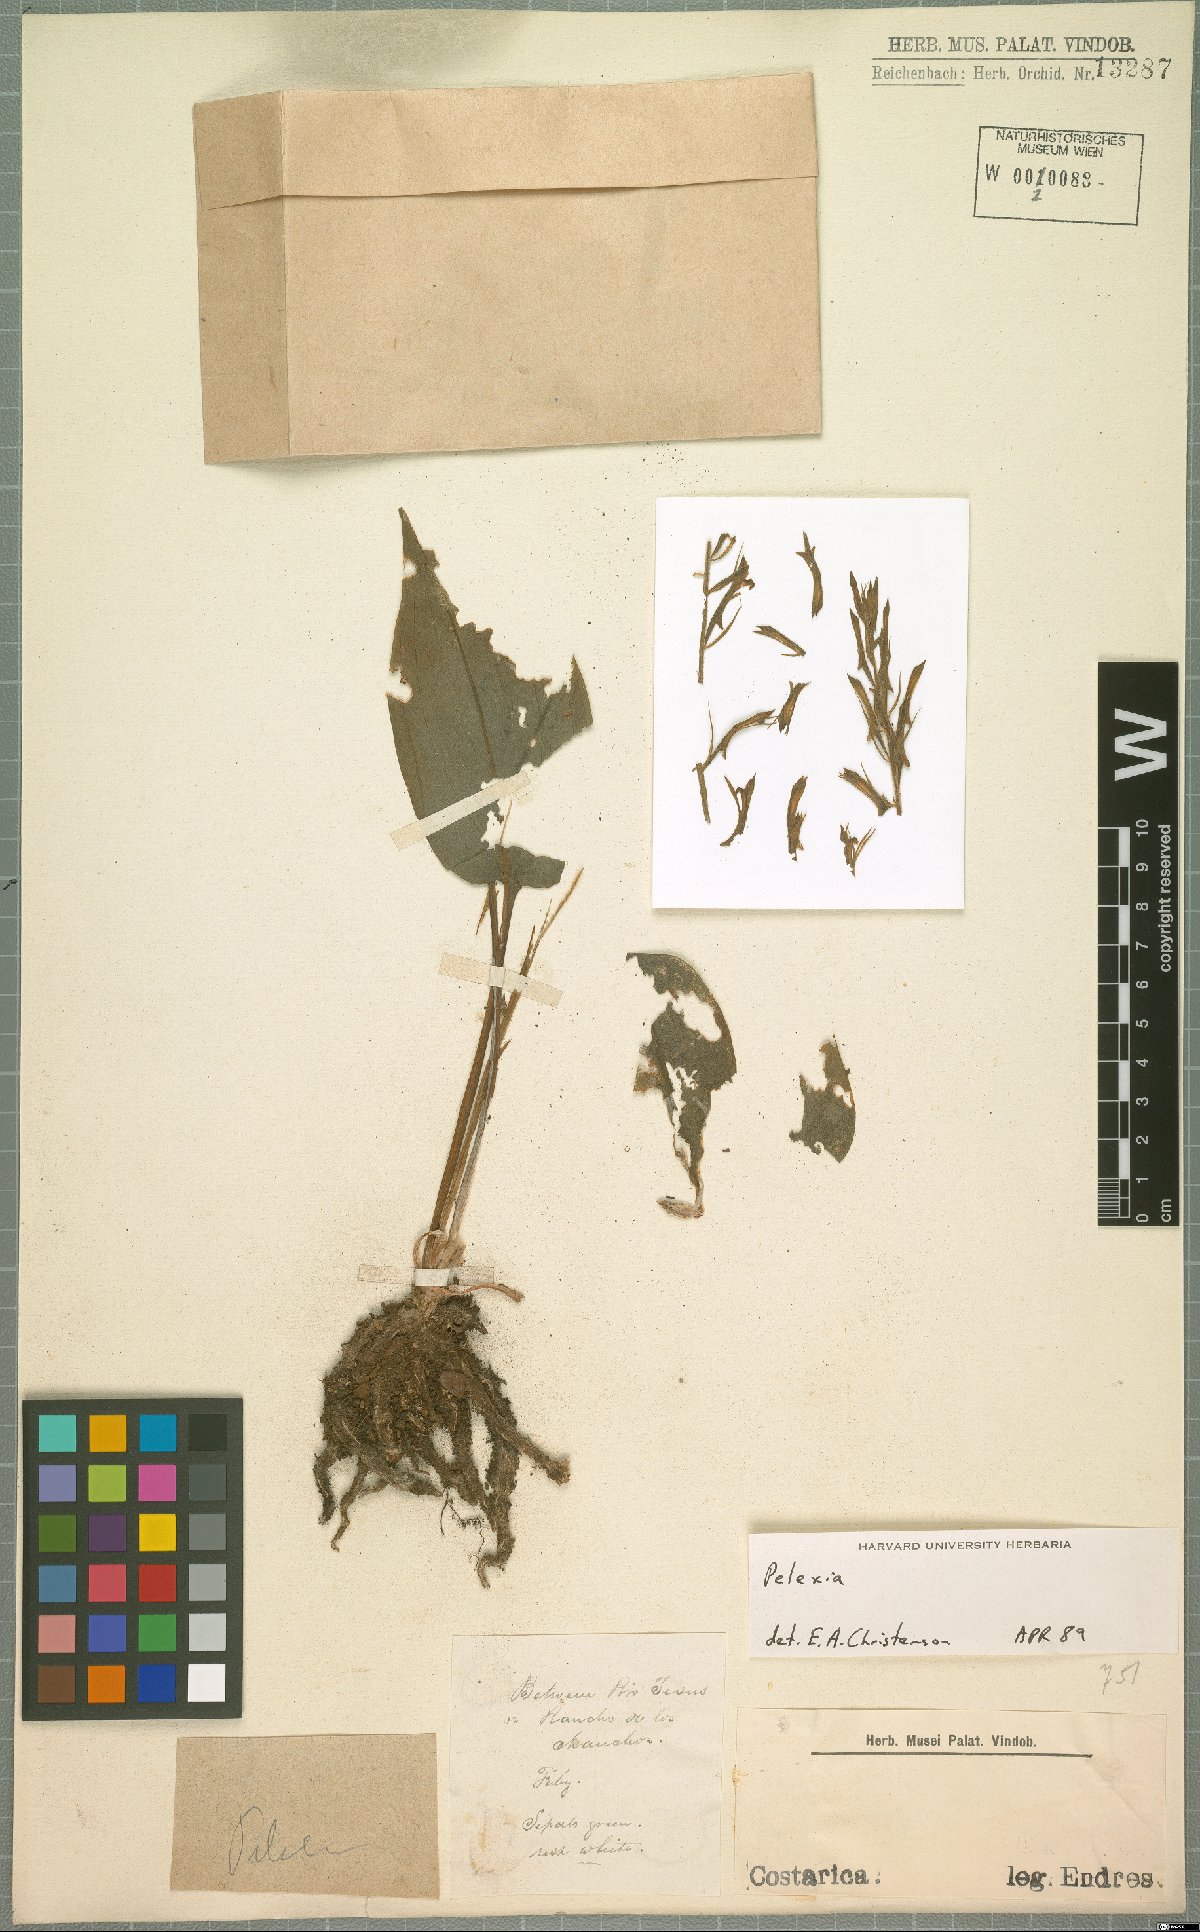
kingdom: Plantae
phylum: Tracheophyta
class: Liliopsida
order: Asparagales
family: Orchidaceae
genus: Pelexia
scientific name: Pelexia
